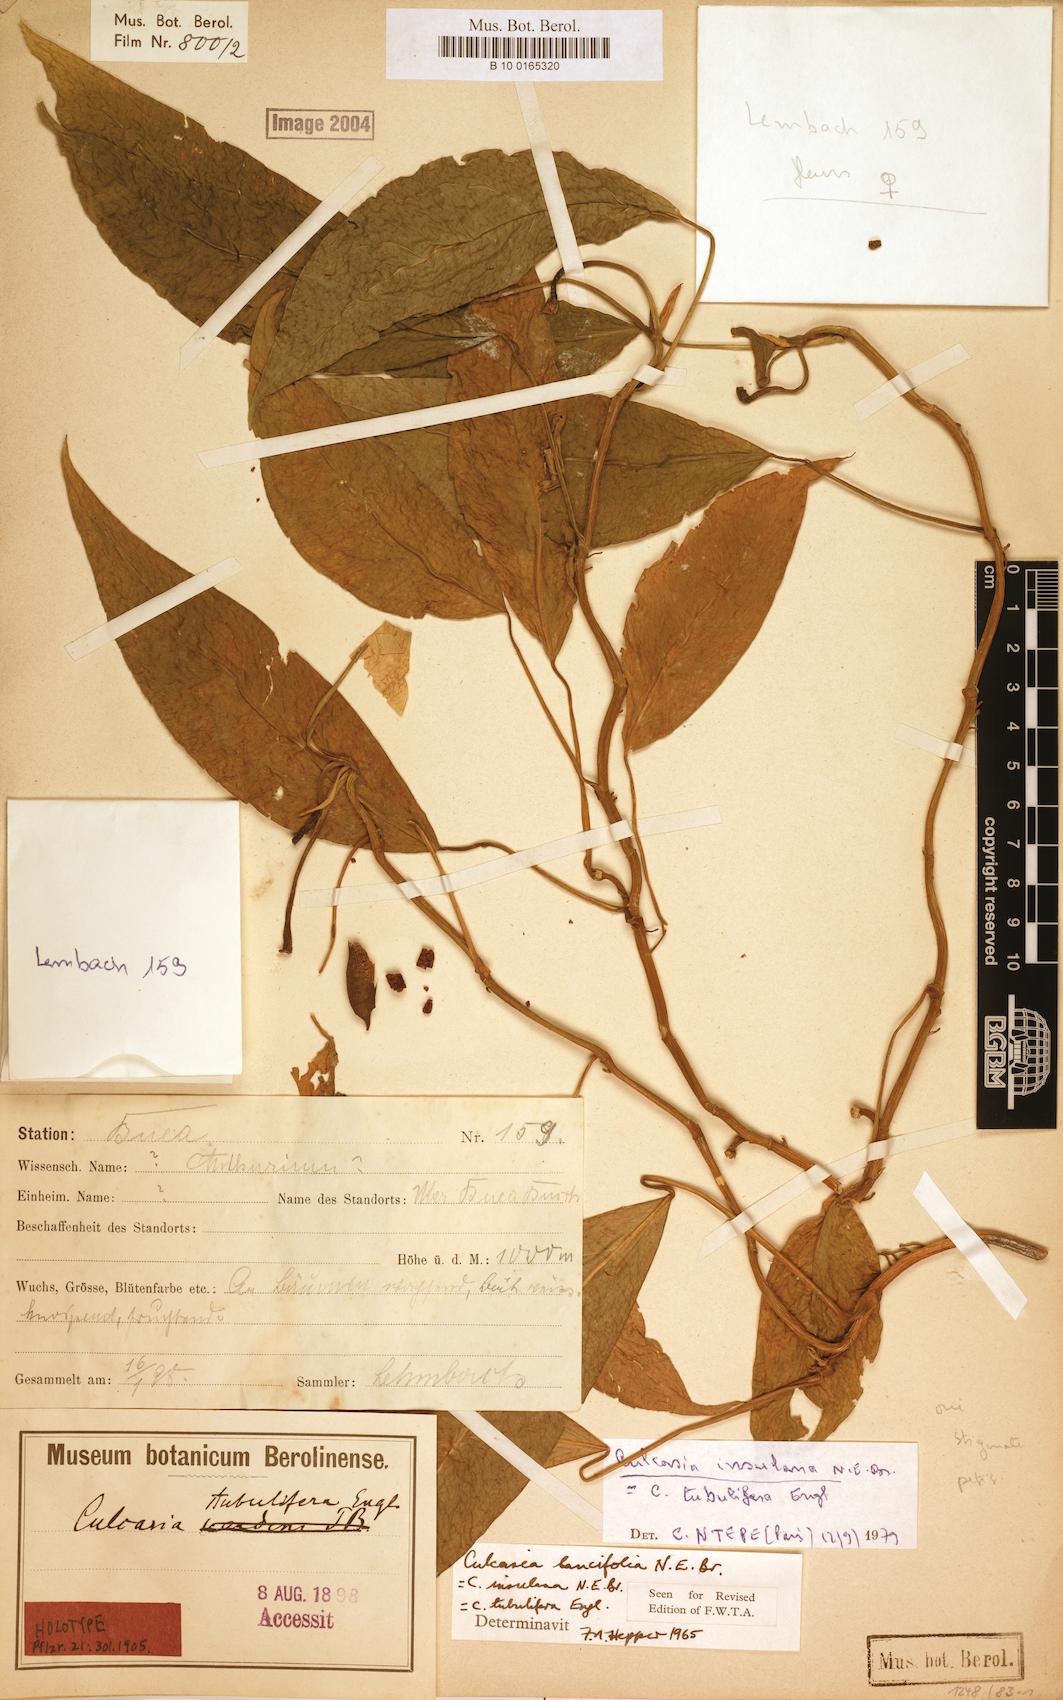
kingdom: Plantae
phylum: Tracheophyta
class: Liliopsida
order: Alismatales
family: Araceae
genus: Culcasia
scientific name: Culcasia insulana
